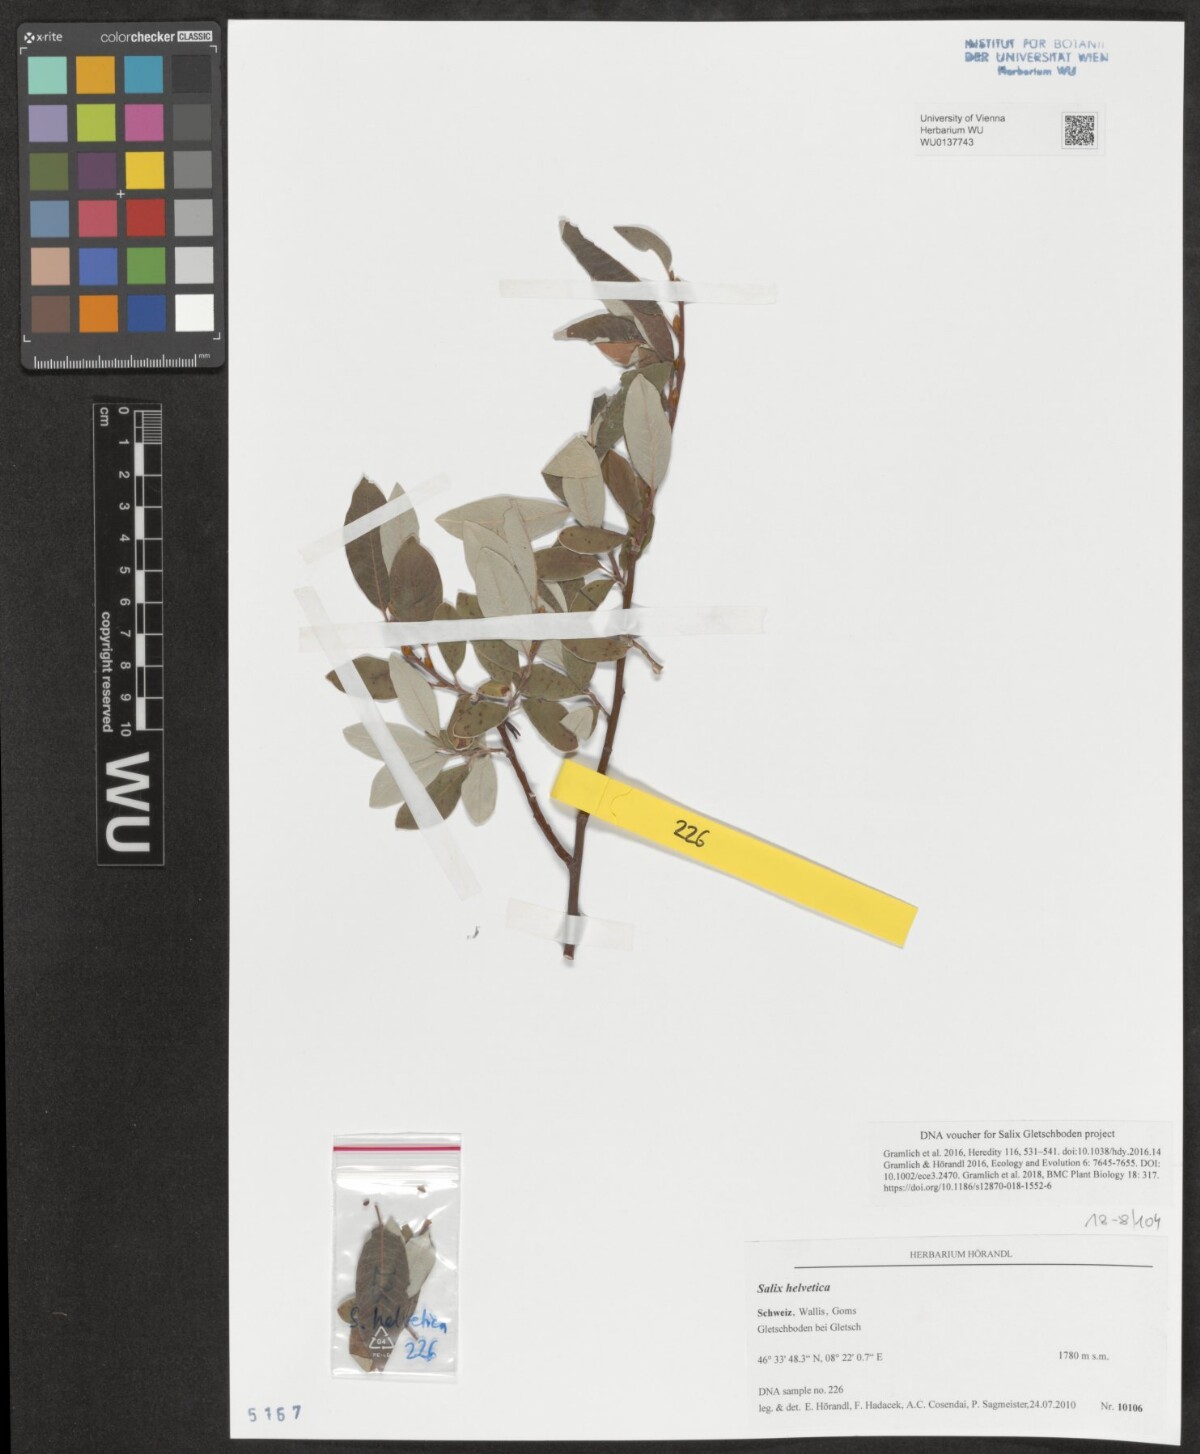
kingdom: Plantae
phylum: Tracheophyta
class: Magnoliopsida
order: Malpighiales
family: Salicaceae
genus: Salix
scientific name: Salix helvetica
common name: Swiss willow
